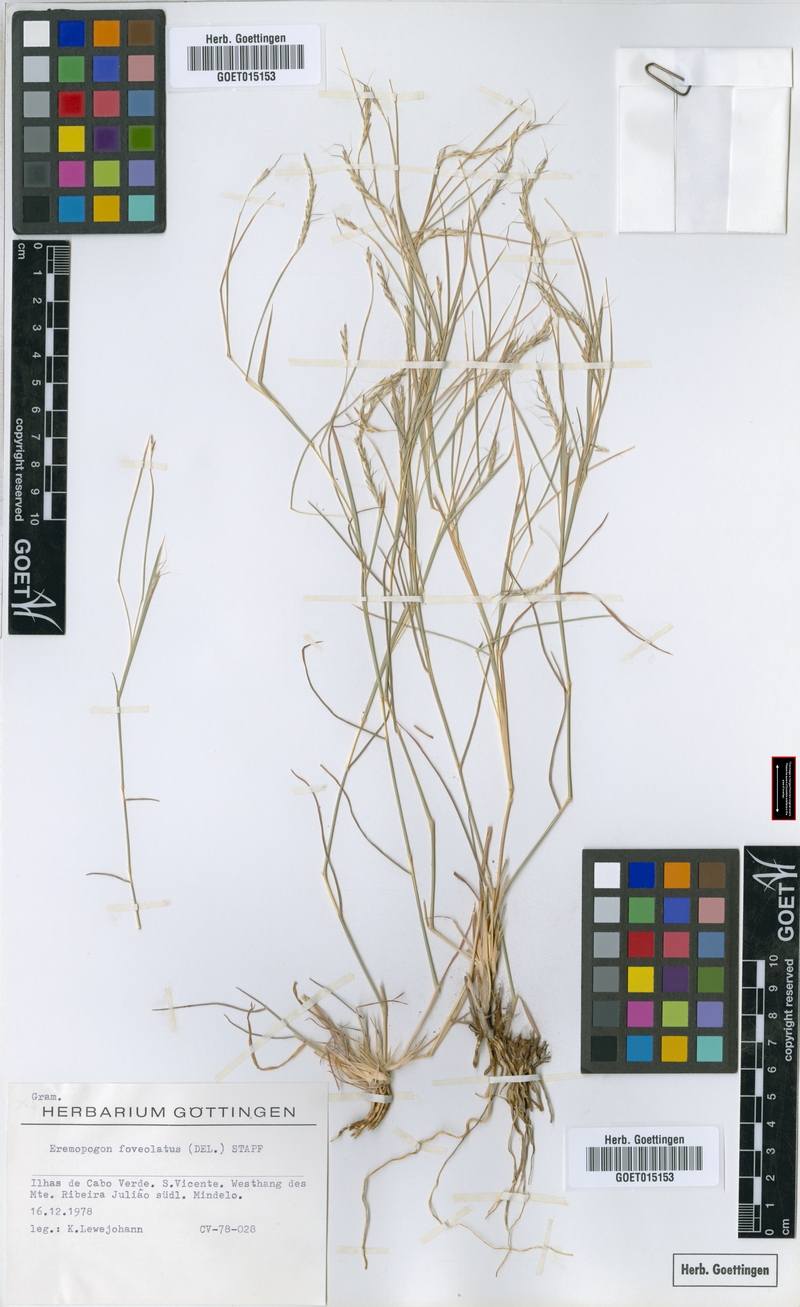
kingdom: Plantae
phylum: Tracheophyta
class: Liliopsida
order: Poales
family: Poaceae
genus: Dichanthium
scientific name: Dichanthium foveolatum
